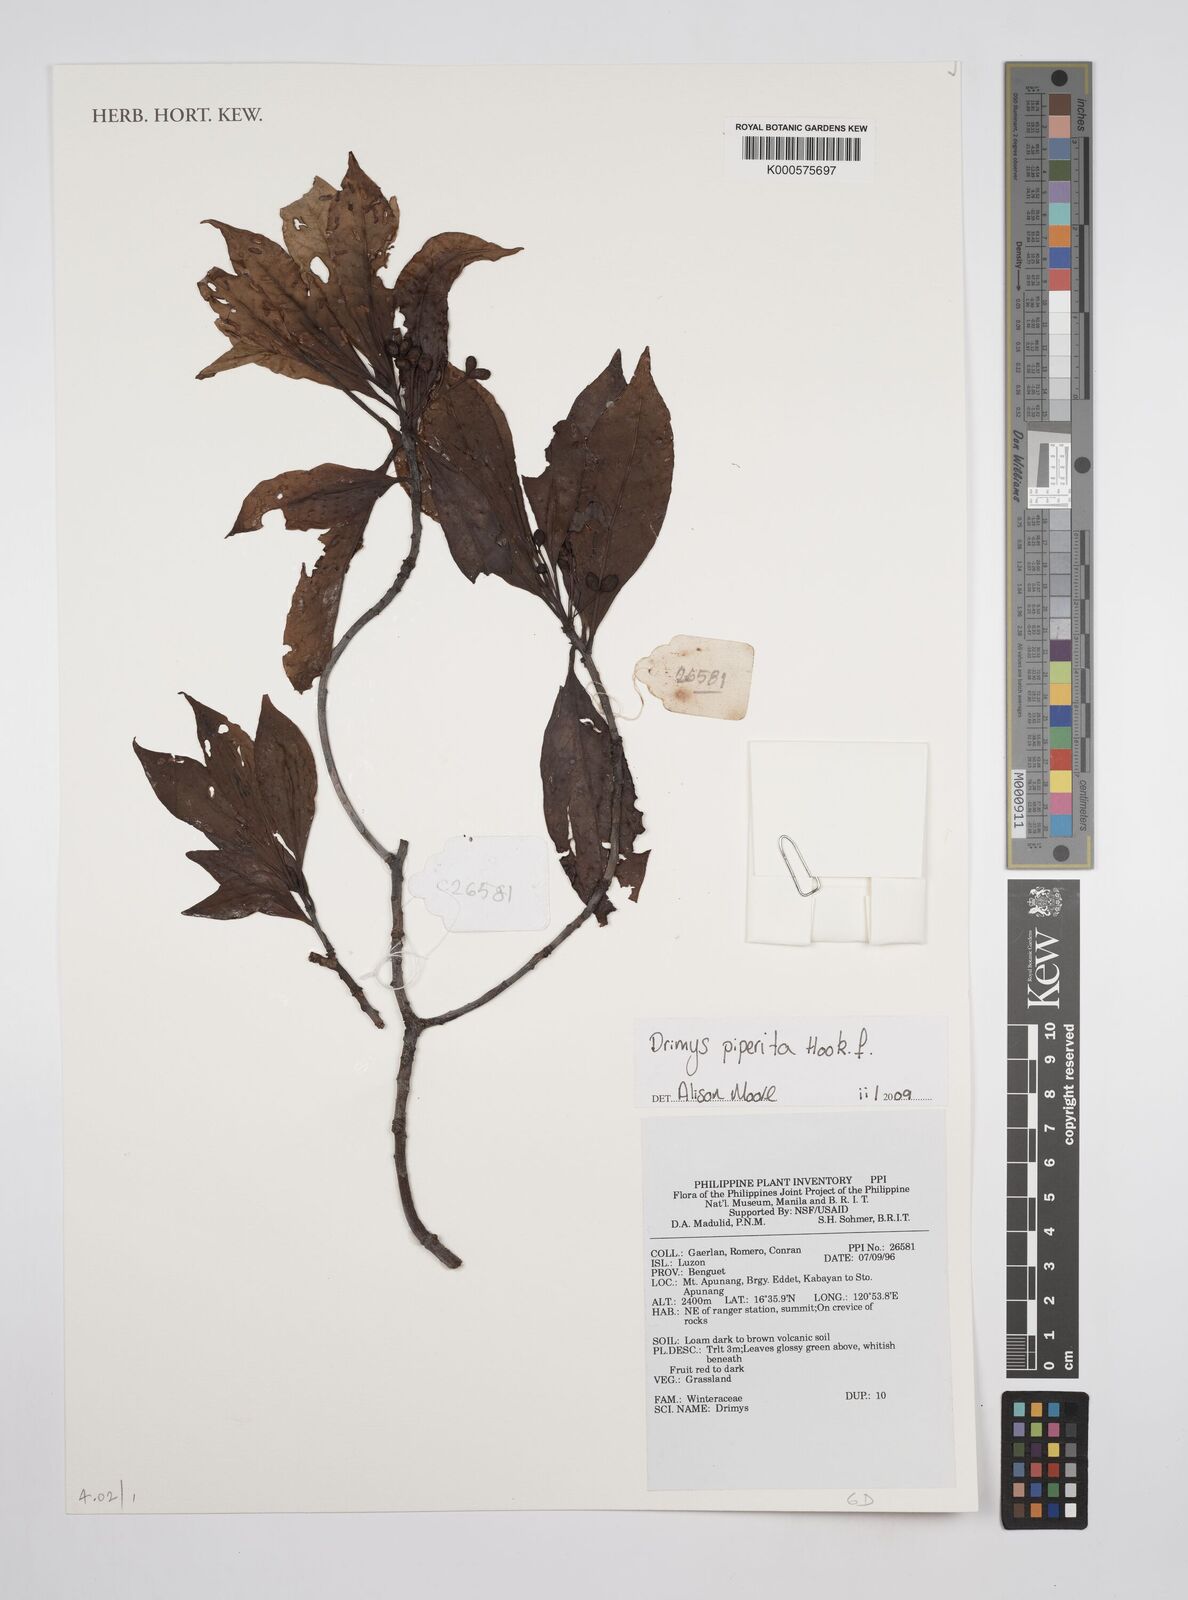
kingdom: Plantae
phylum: Tracheophyta
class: Magnoliopsida
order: Canellales
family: Winteraceae
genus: Drimys
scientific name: Drimys piperita
